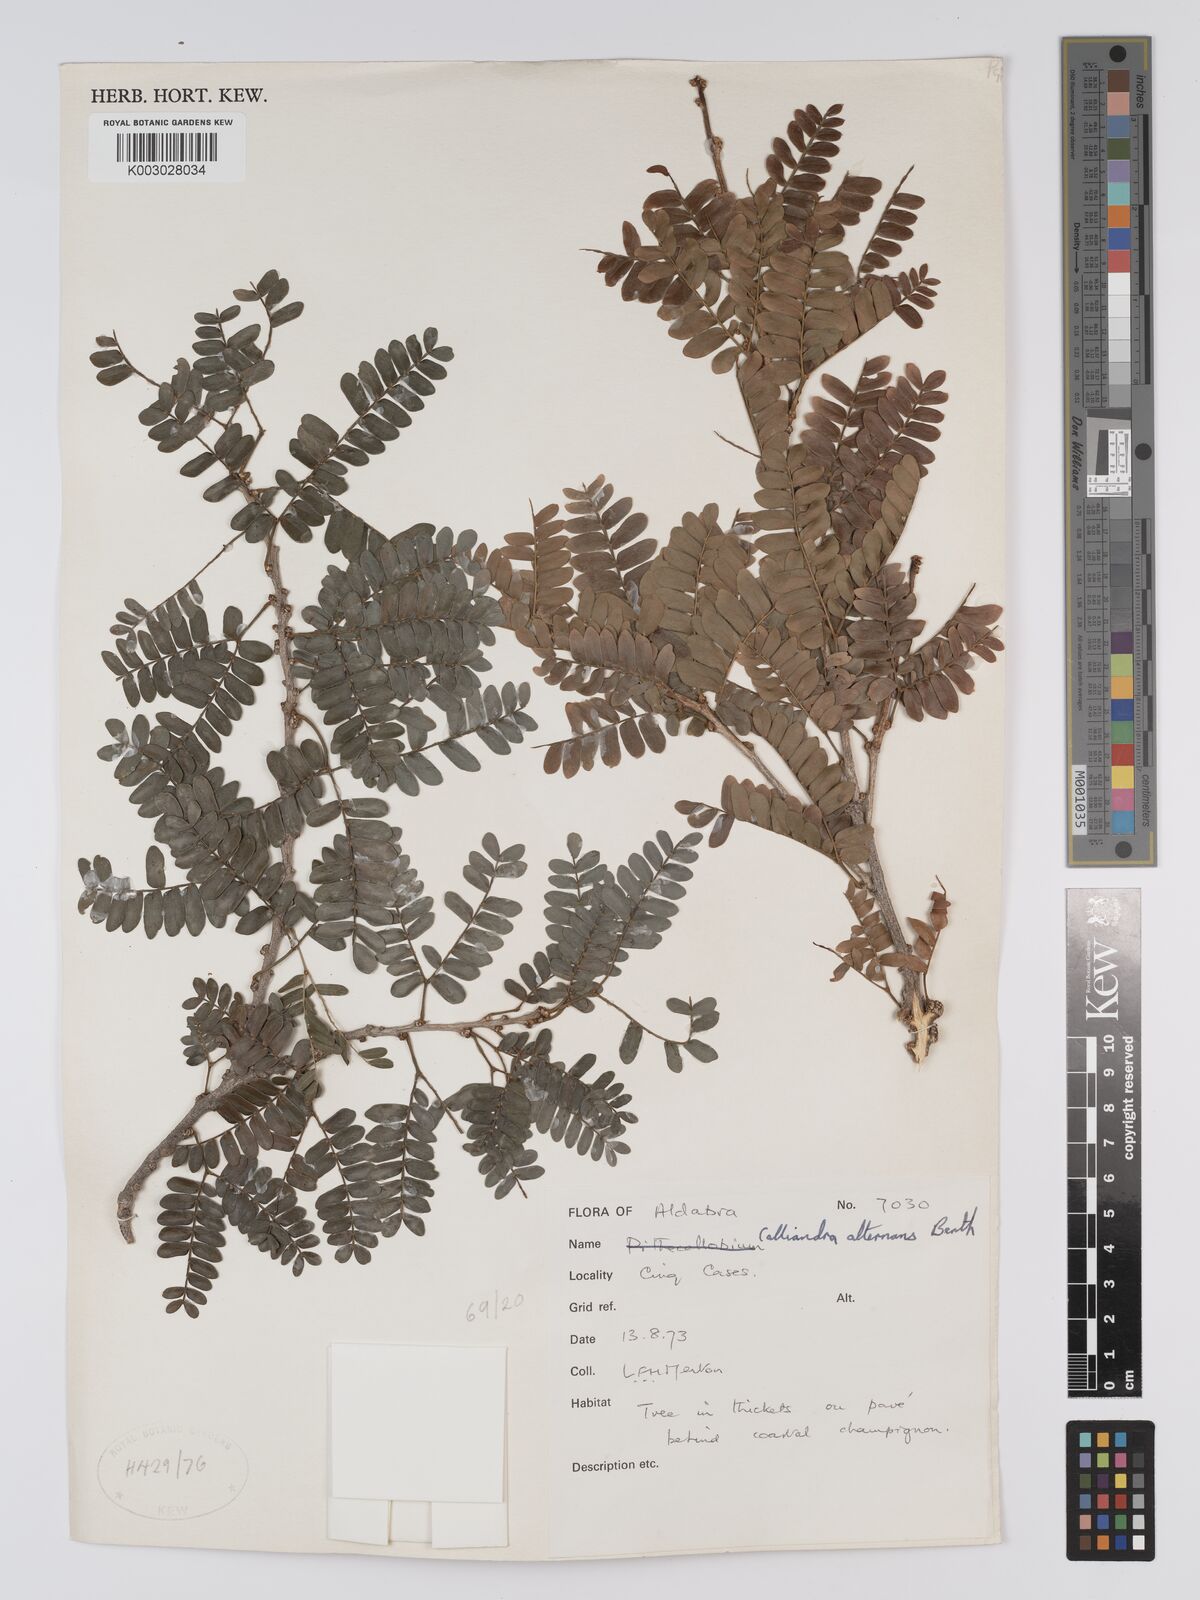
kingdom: Plantae
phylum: Tracheophyta
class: Magnoliopsida
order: Fabales
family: Fabaceae
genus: Viguieranthus
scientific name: Viguieranthus alternans
